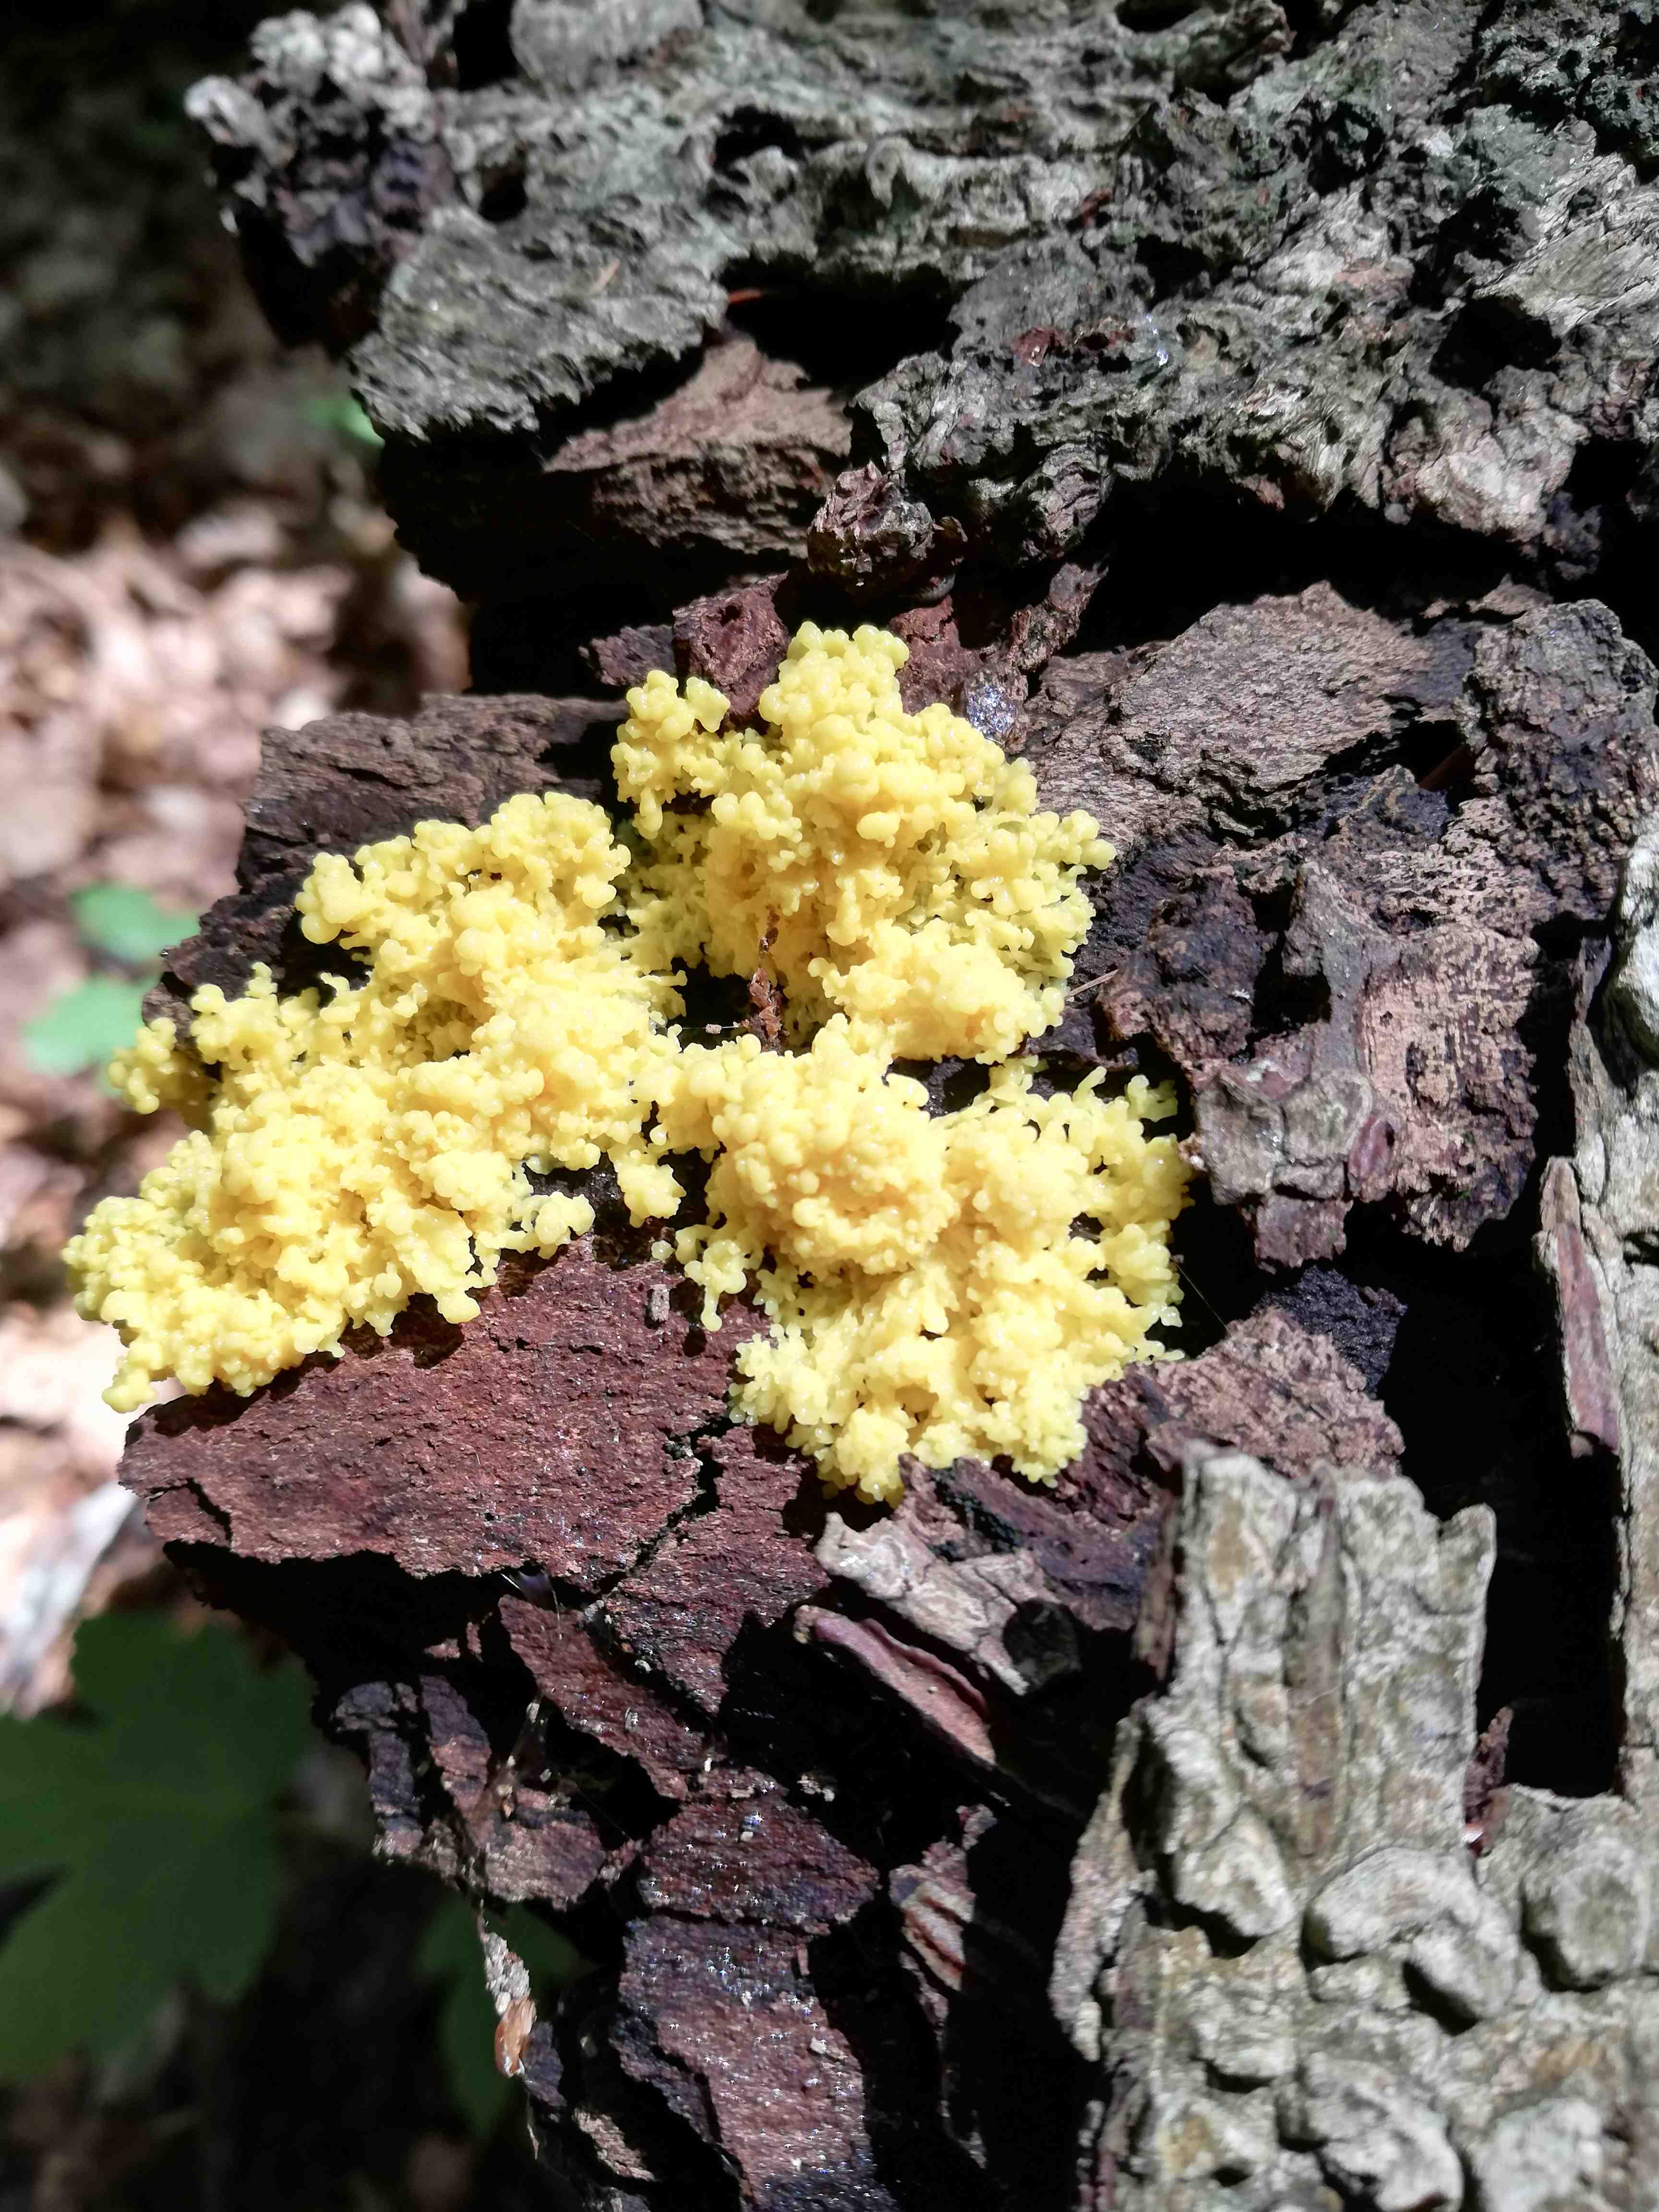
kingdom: Protozoa
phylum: Mycetozoa
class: Myxomycetes
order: Physarales
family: Physaraceae
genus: Fuligo
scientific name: Fuligo septica
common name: gul troldsmør
